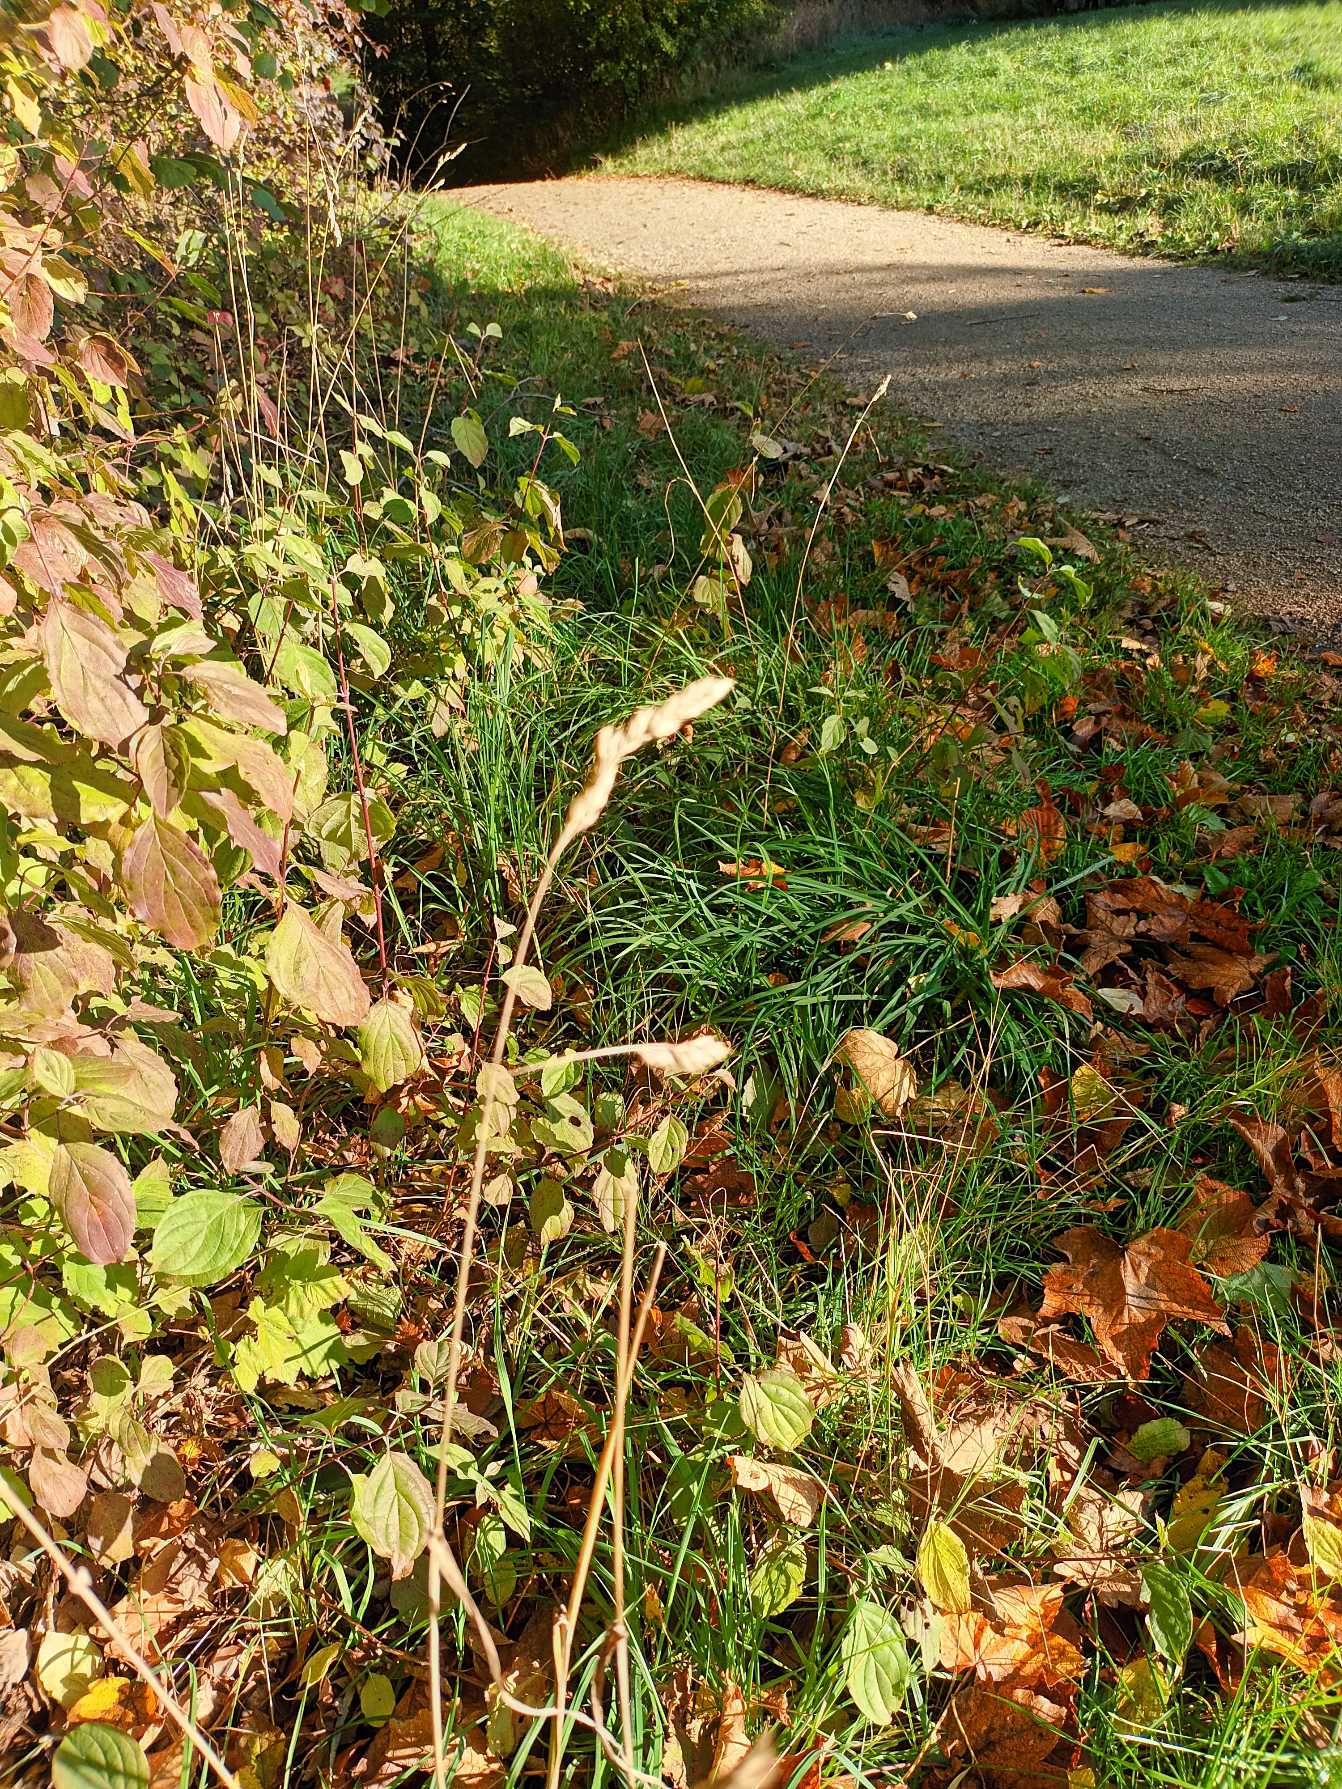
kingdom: Plantae
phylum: Tracheophyta
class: Liliopsida
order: Poales
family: Poaceae
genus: Dactylis
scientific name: Dactylis glomerata
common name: Almindelig hundegræs
